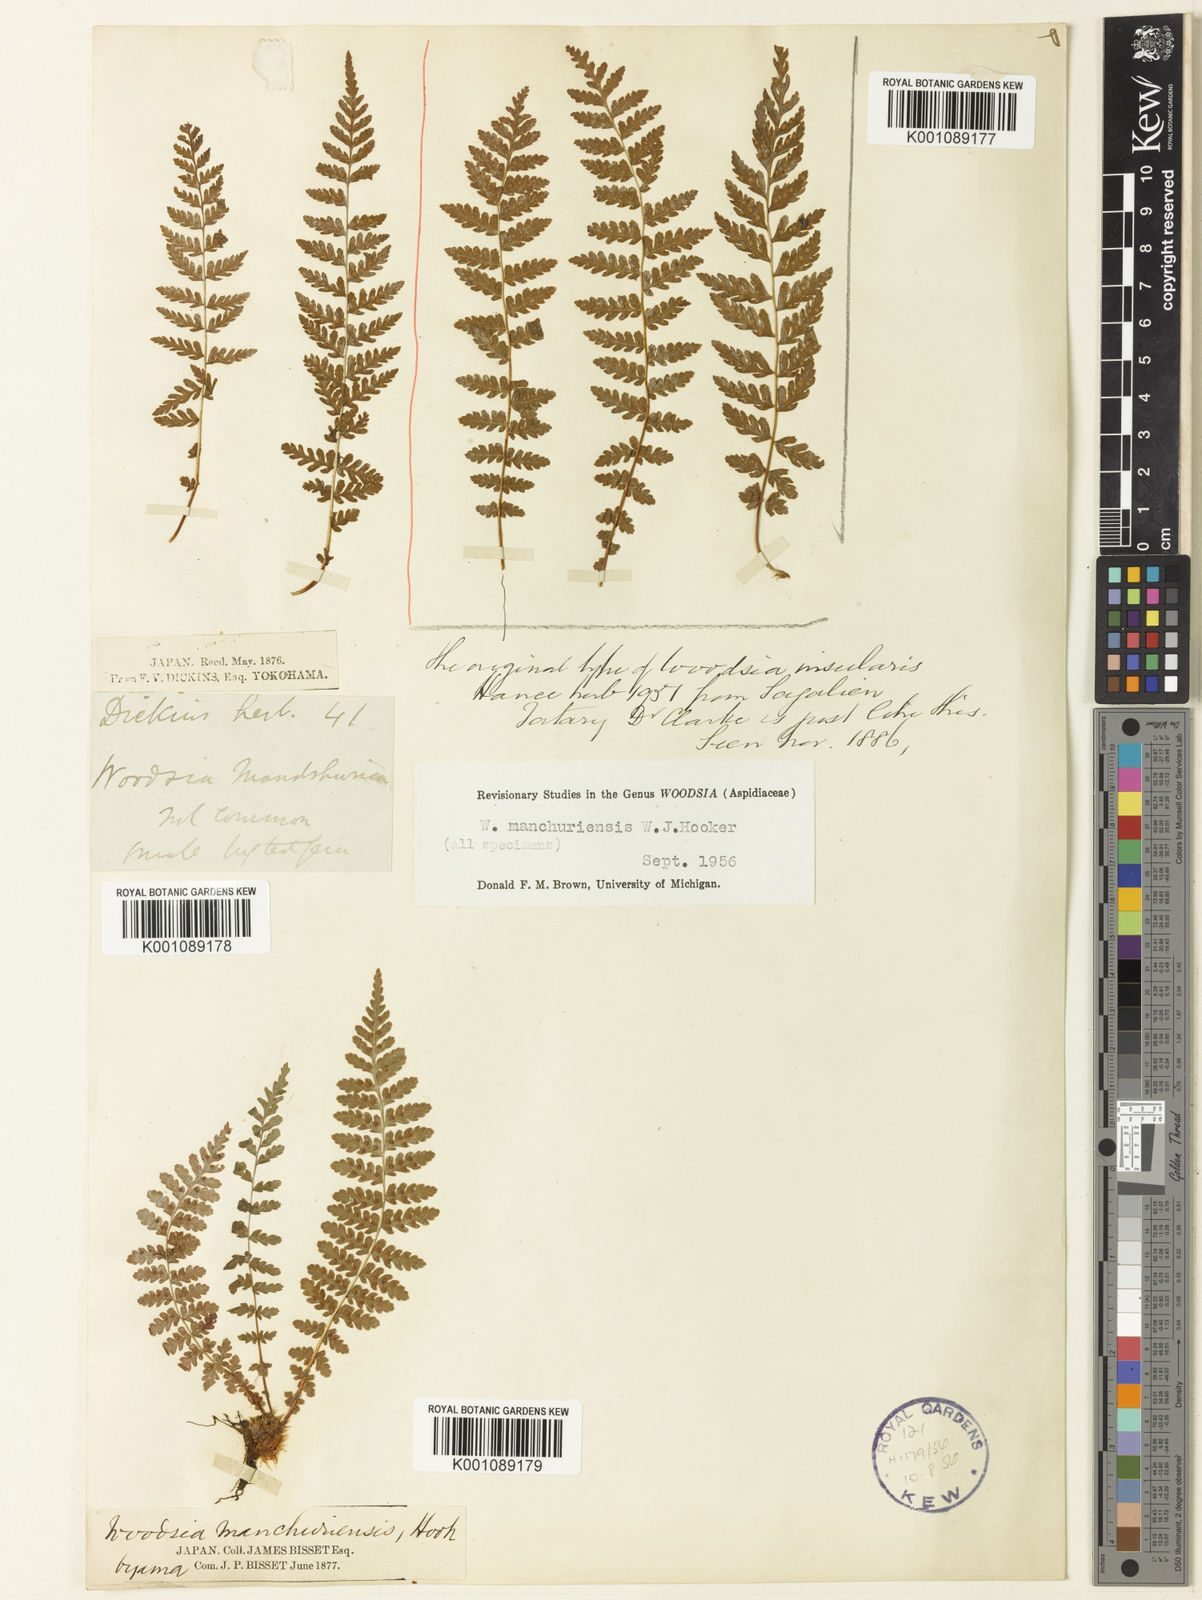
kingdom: Plantae
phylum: Tracheophyta
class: Polypodiopsida
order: Polypodiales
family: Woodsiaceae
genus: Physematium
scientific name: Physematium manchuriense
